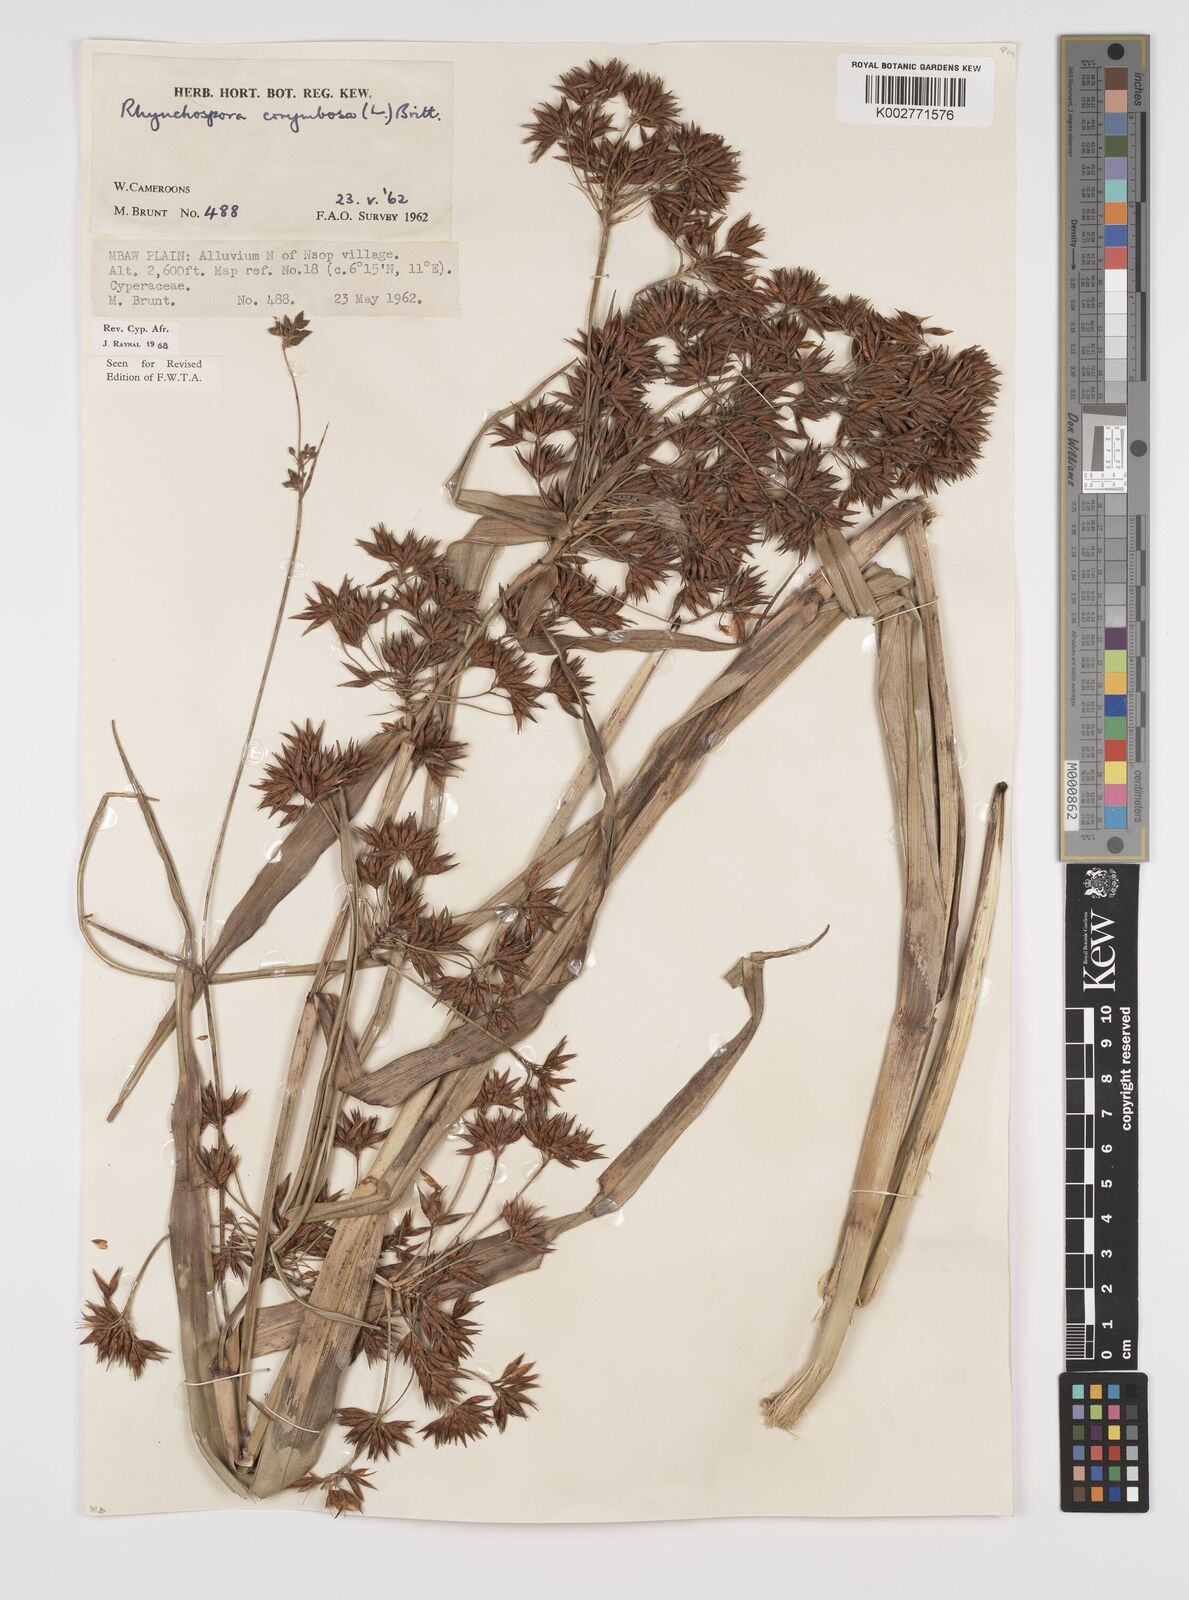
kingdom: Plantae
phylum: Tracheophyta
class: Liliopsida
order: Poales
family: Cyperaceae
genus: Rhynchospora
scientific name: Rhynchospora corymbosa
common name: Golden beak sedge
